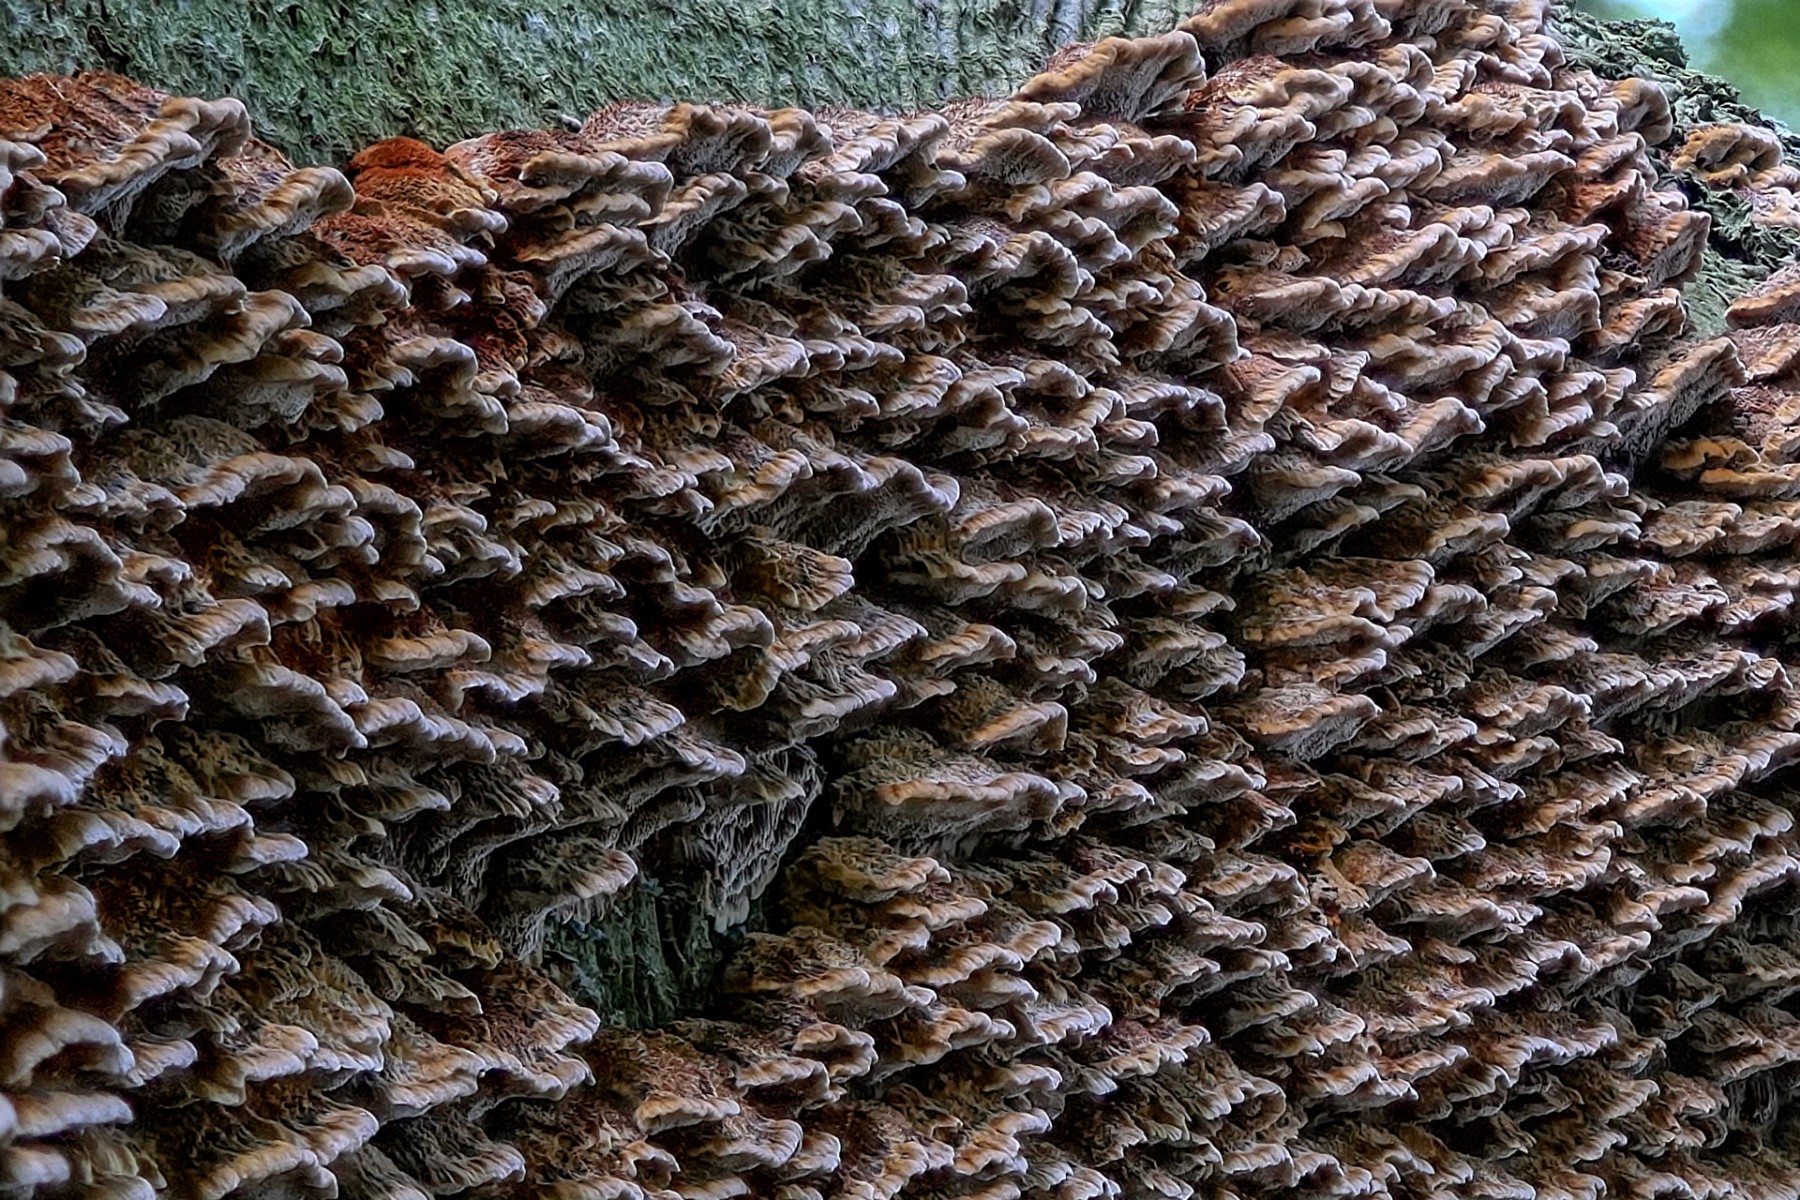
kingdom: Fungi
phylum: Basidiomycota
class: Agaricomycetes
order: Hymenochaetales
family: Hymenochaetaceae
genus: Mensularia
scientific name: Mensularia nodulosa
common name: bøge-spejlporesvamp
